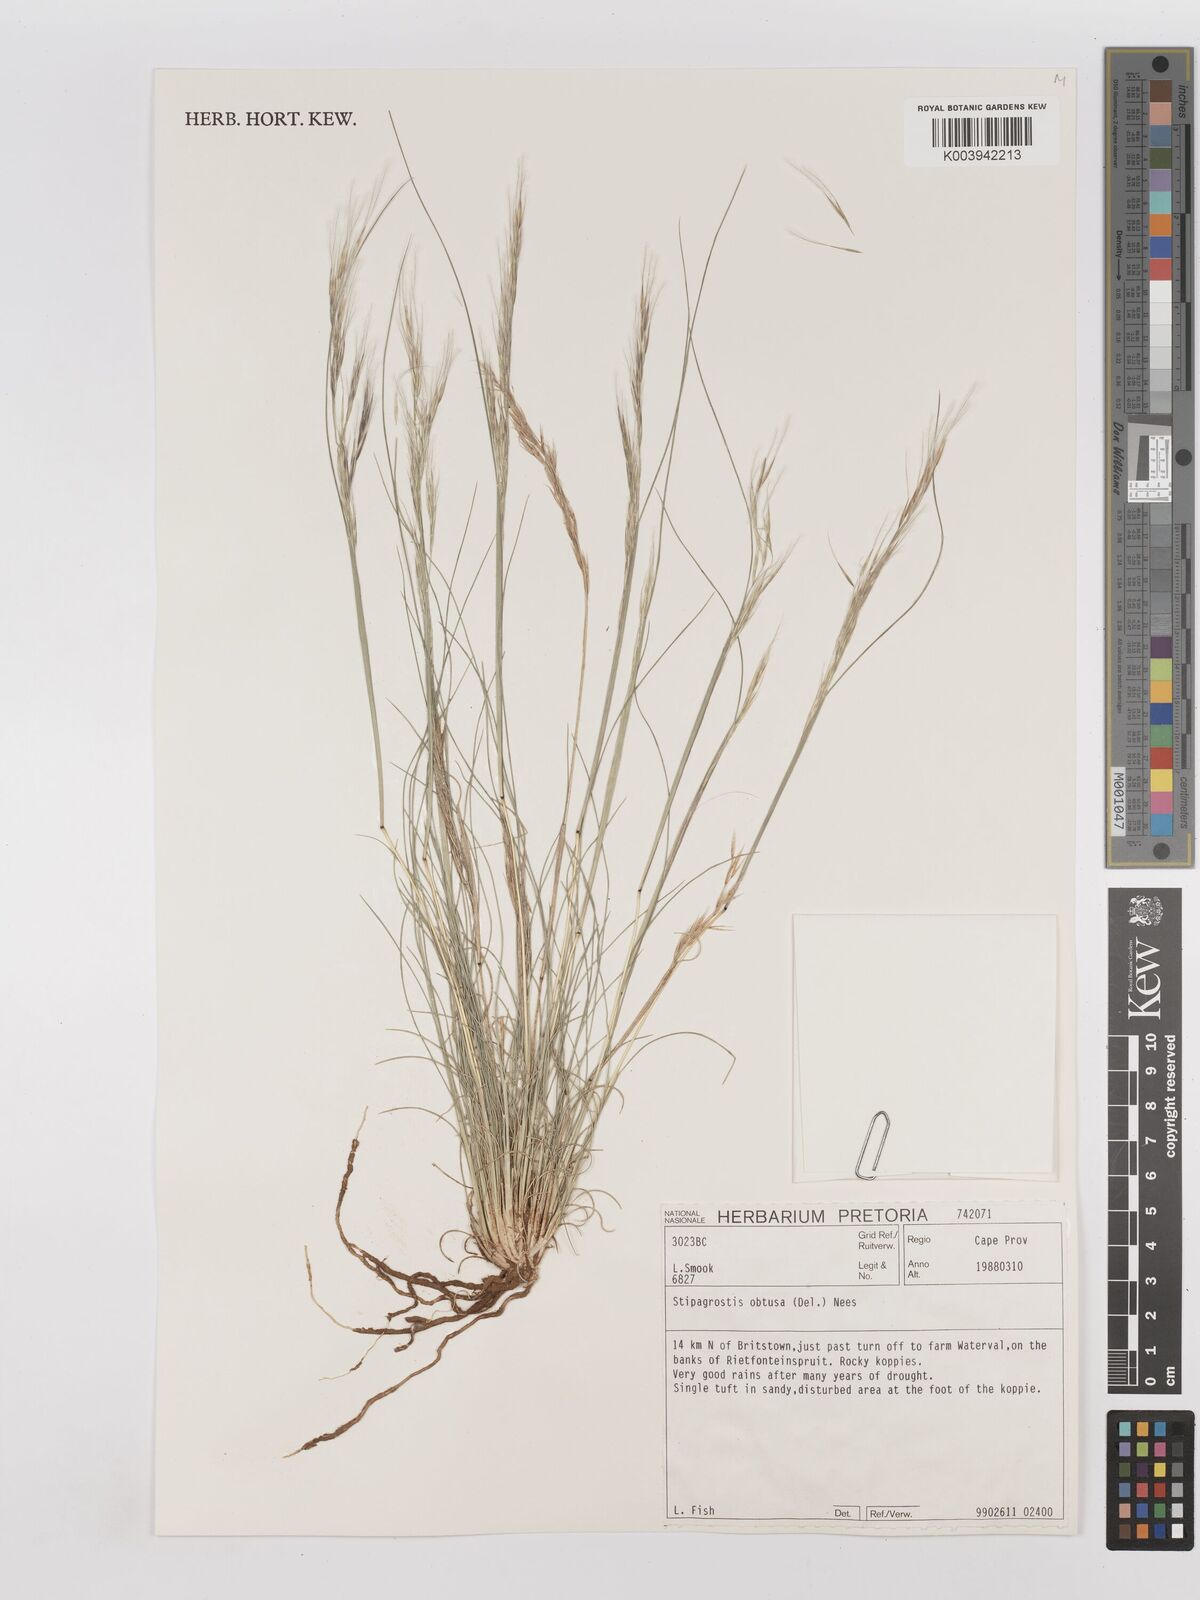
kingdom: Plantae
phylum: Tracheophyta
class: Liliopsida
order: Poales
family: Poaceae
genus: Stipagrostis
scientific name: Stipagrostis obtusa
